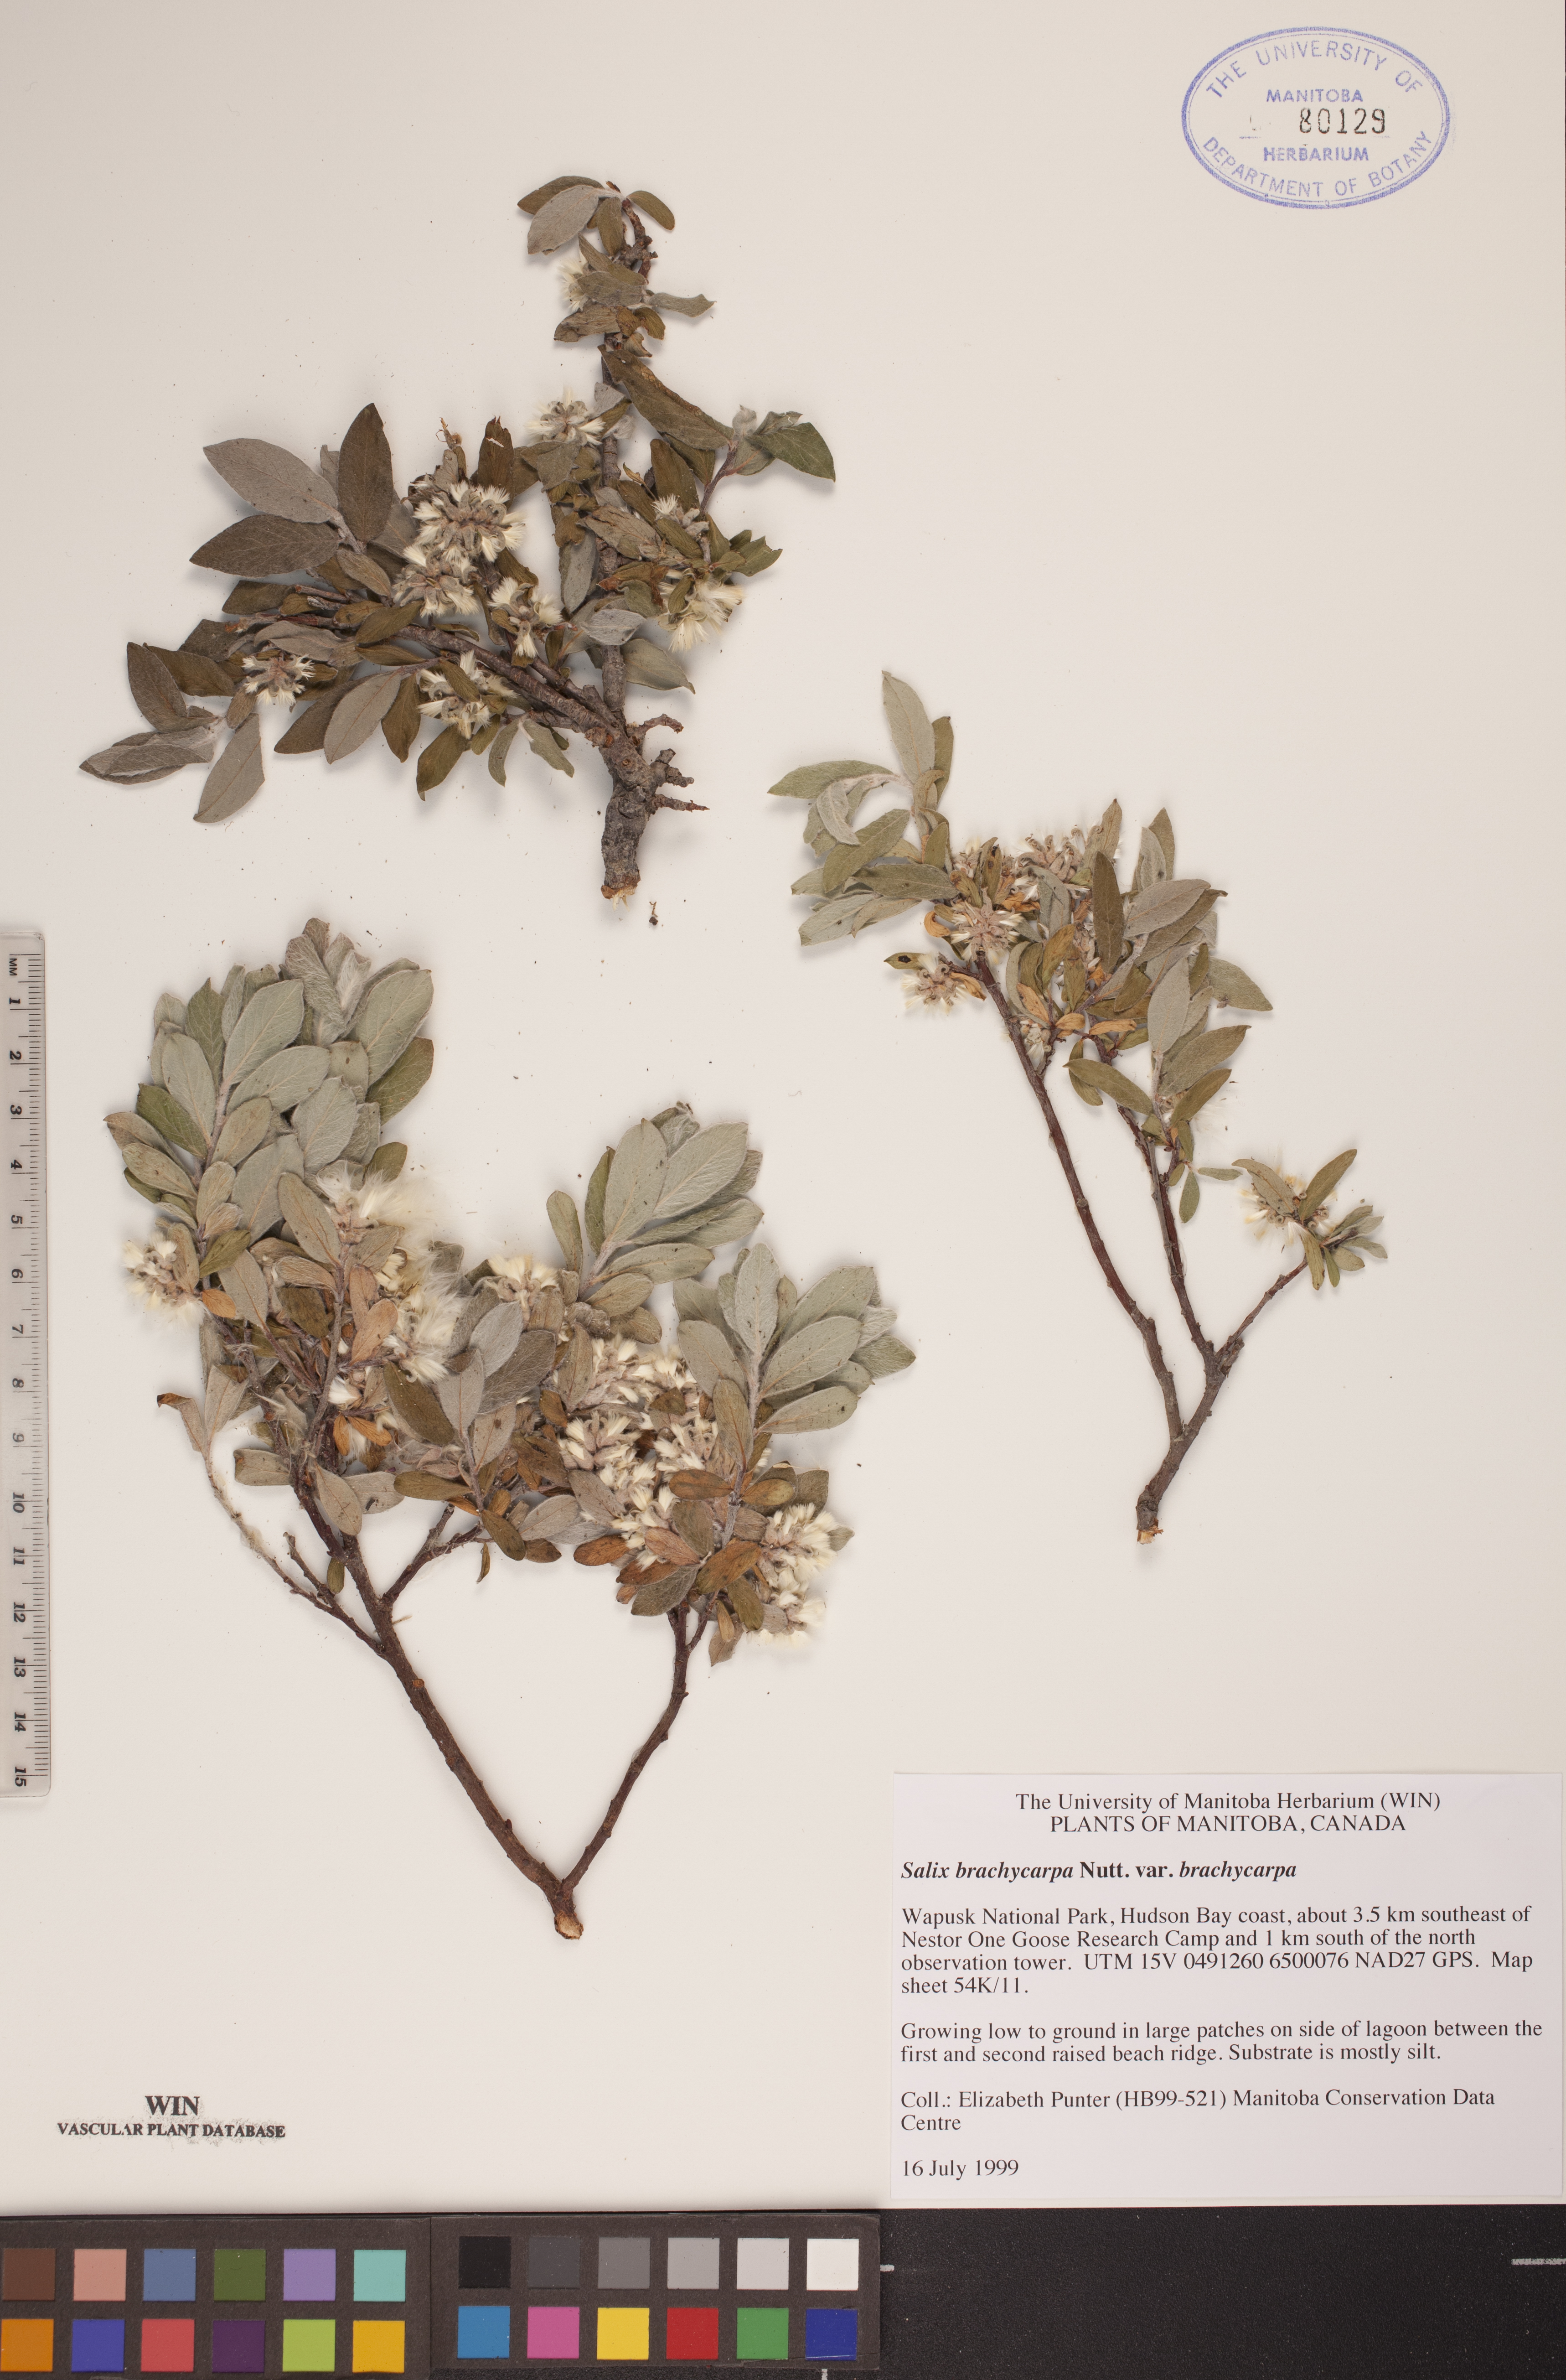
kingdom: Plantae
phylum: Tracheophyta
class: Magnoliopsida
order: Malpighiales
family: Salicaceae
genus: Salix
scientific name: Salix brachycarpa
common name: Barren-ground willow
